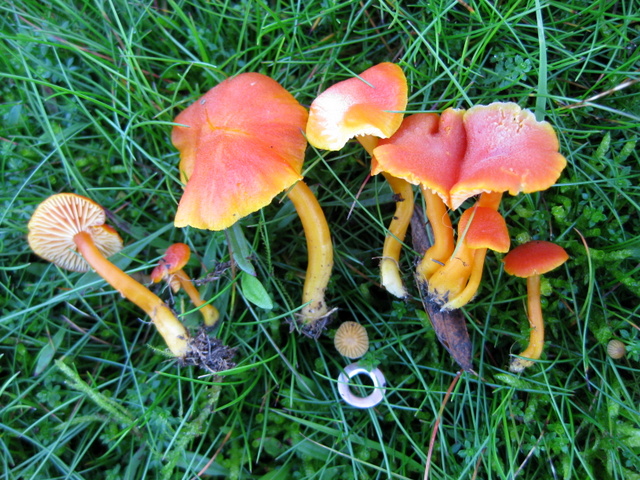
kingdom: Fungi
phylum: Basidiomycota
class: Agaricomycetes
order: Agaricales
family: Hygrophoraceae
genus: Hygrocybe
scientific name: Hygrocybe miniata
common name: mønje-vokshat
